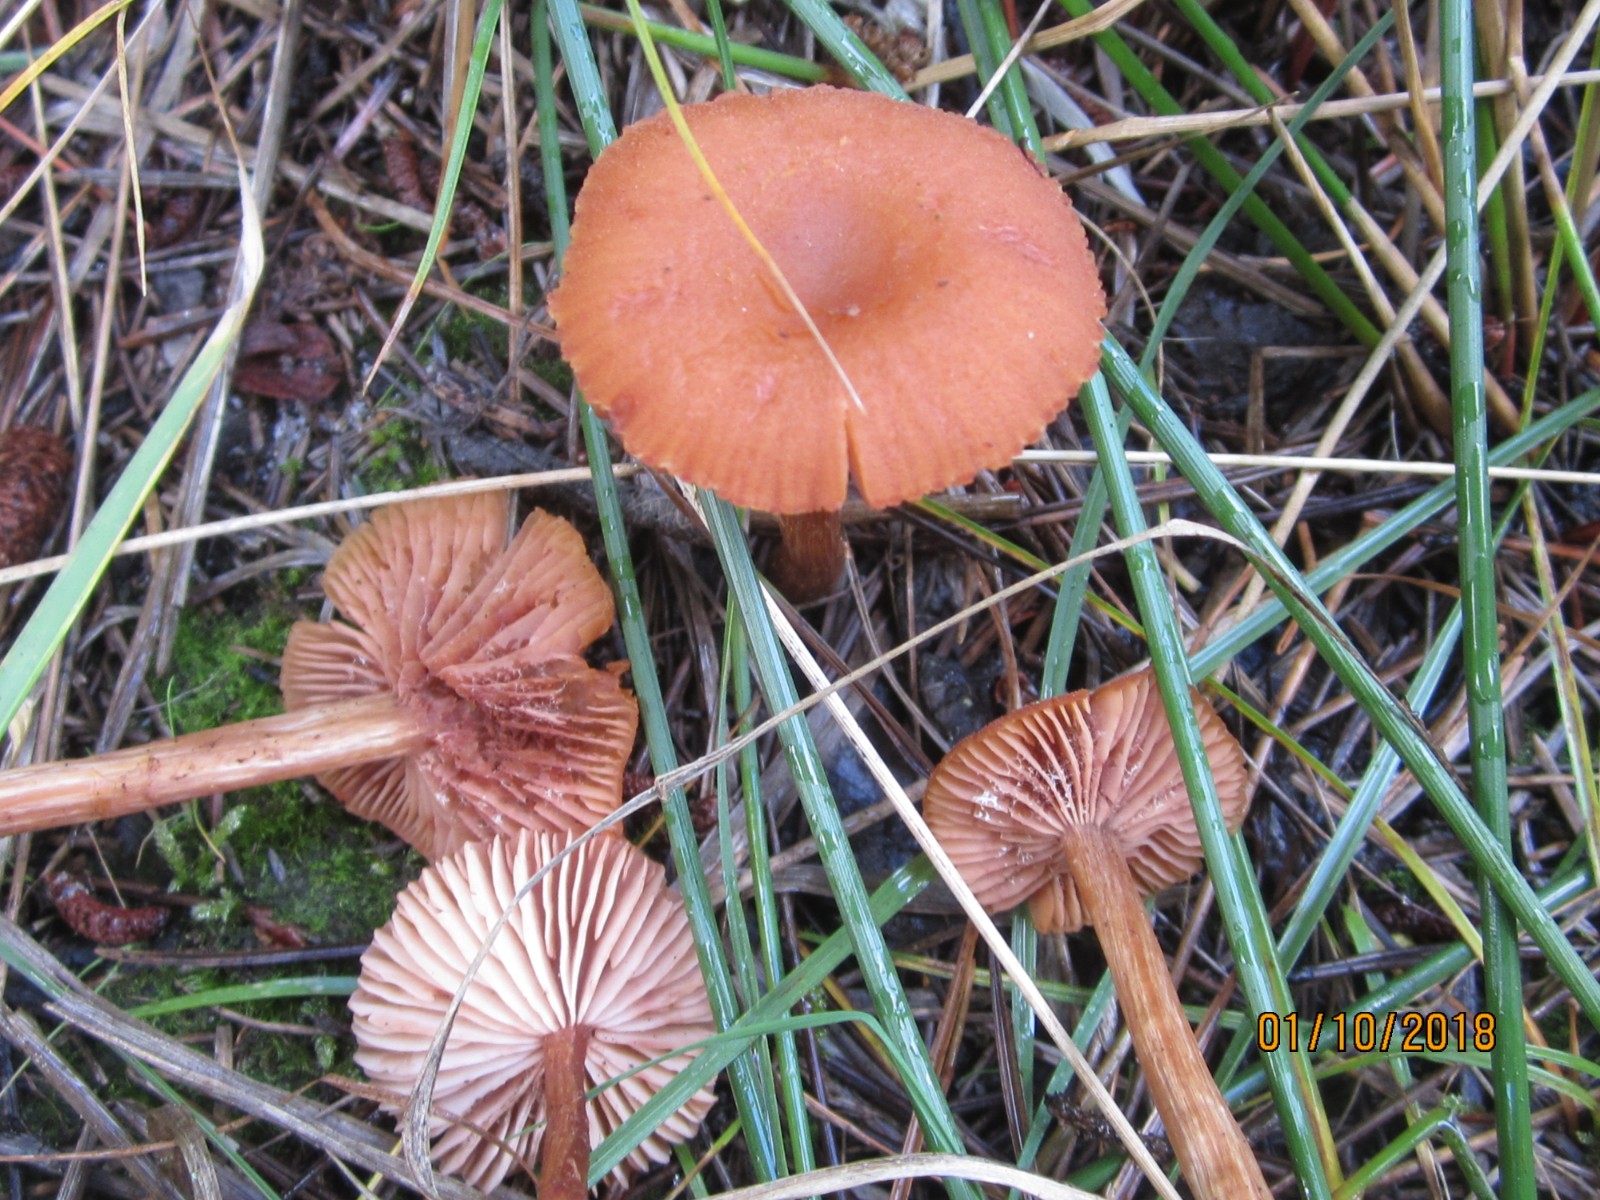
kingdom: Fungi
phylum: Basidiomycota
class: Agaricomycetes
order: Agaricales
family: Hydnangiaceae
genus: Laccaria
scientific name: Laccaria laccata
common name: rød ametysthat
